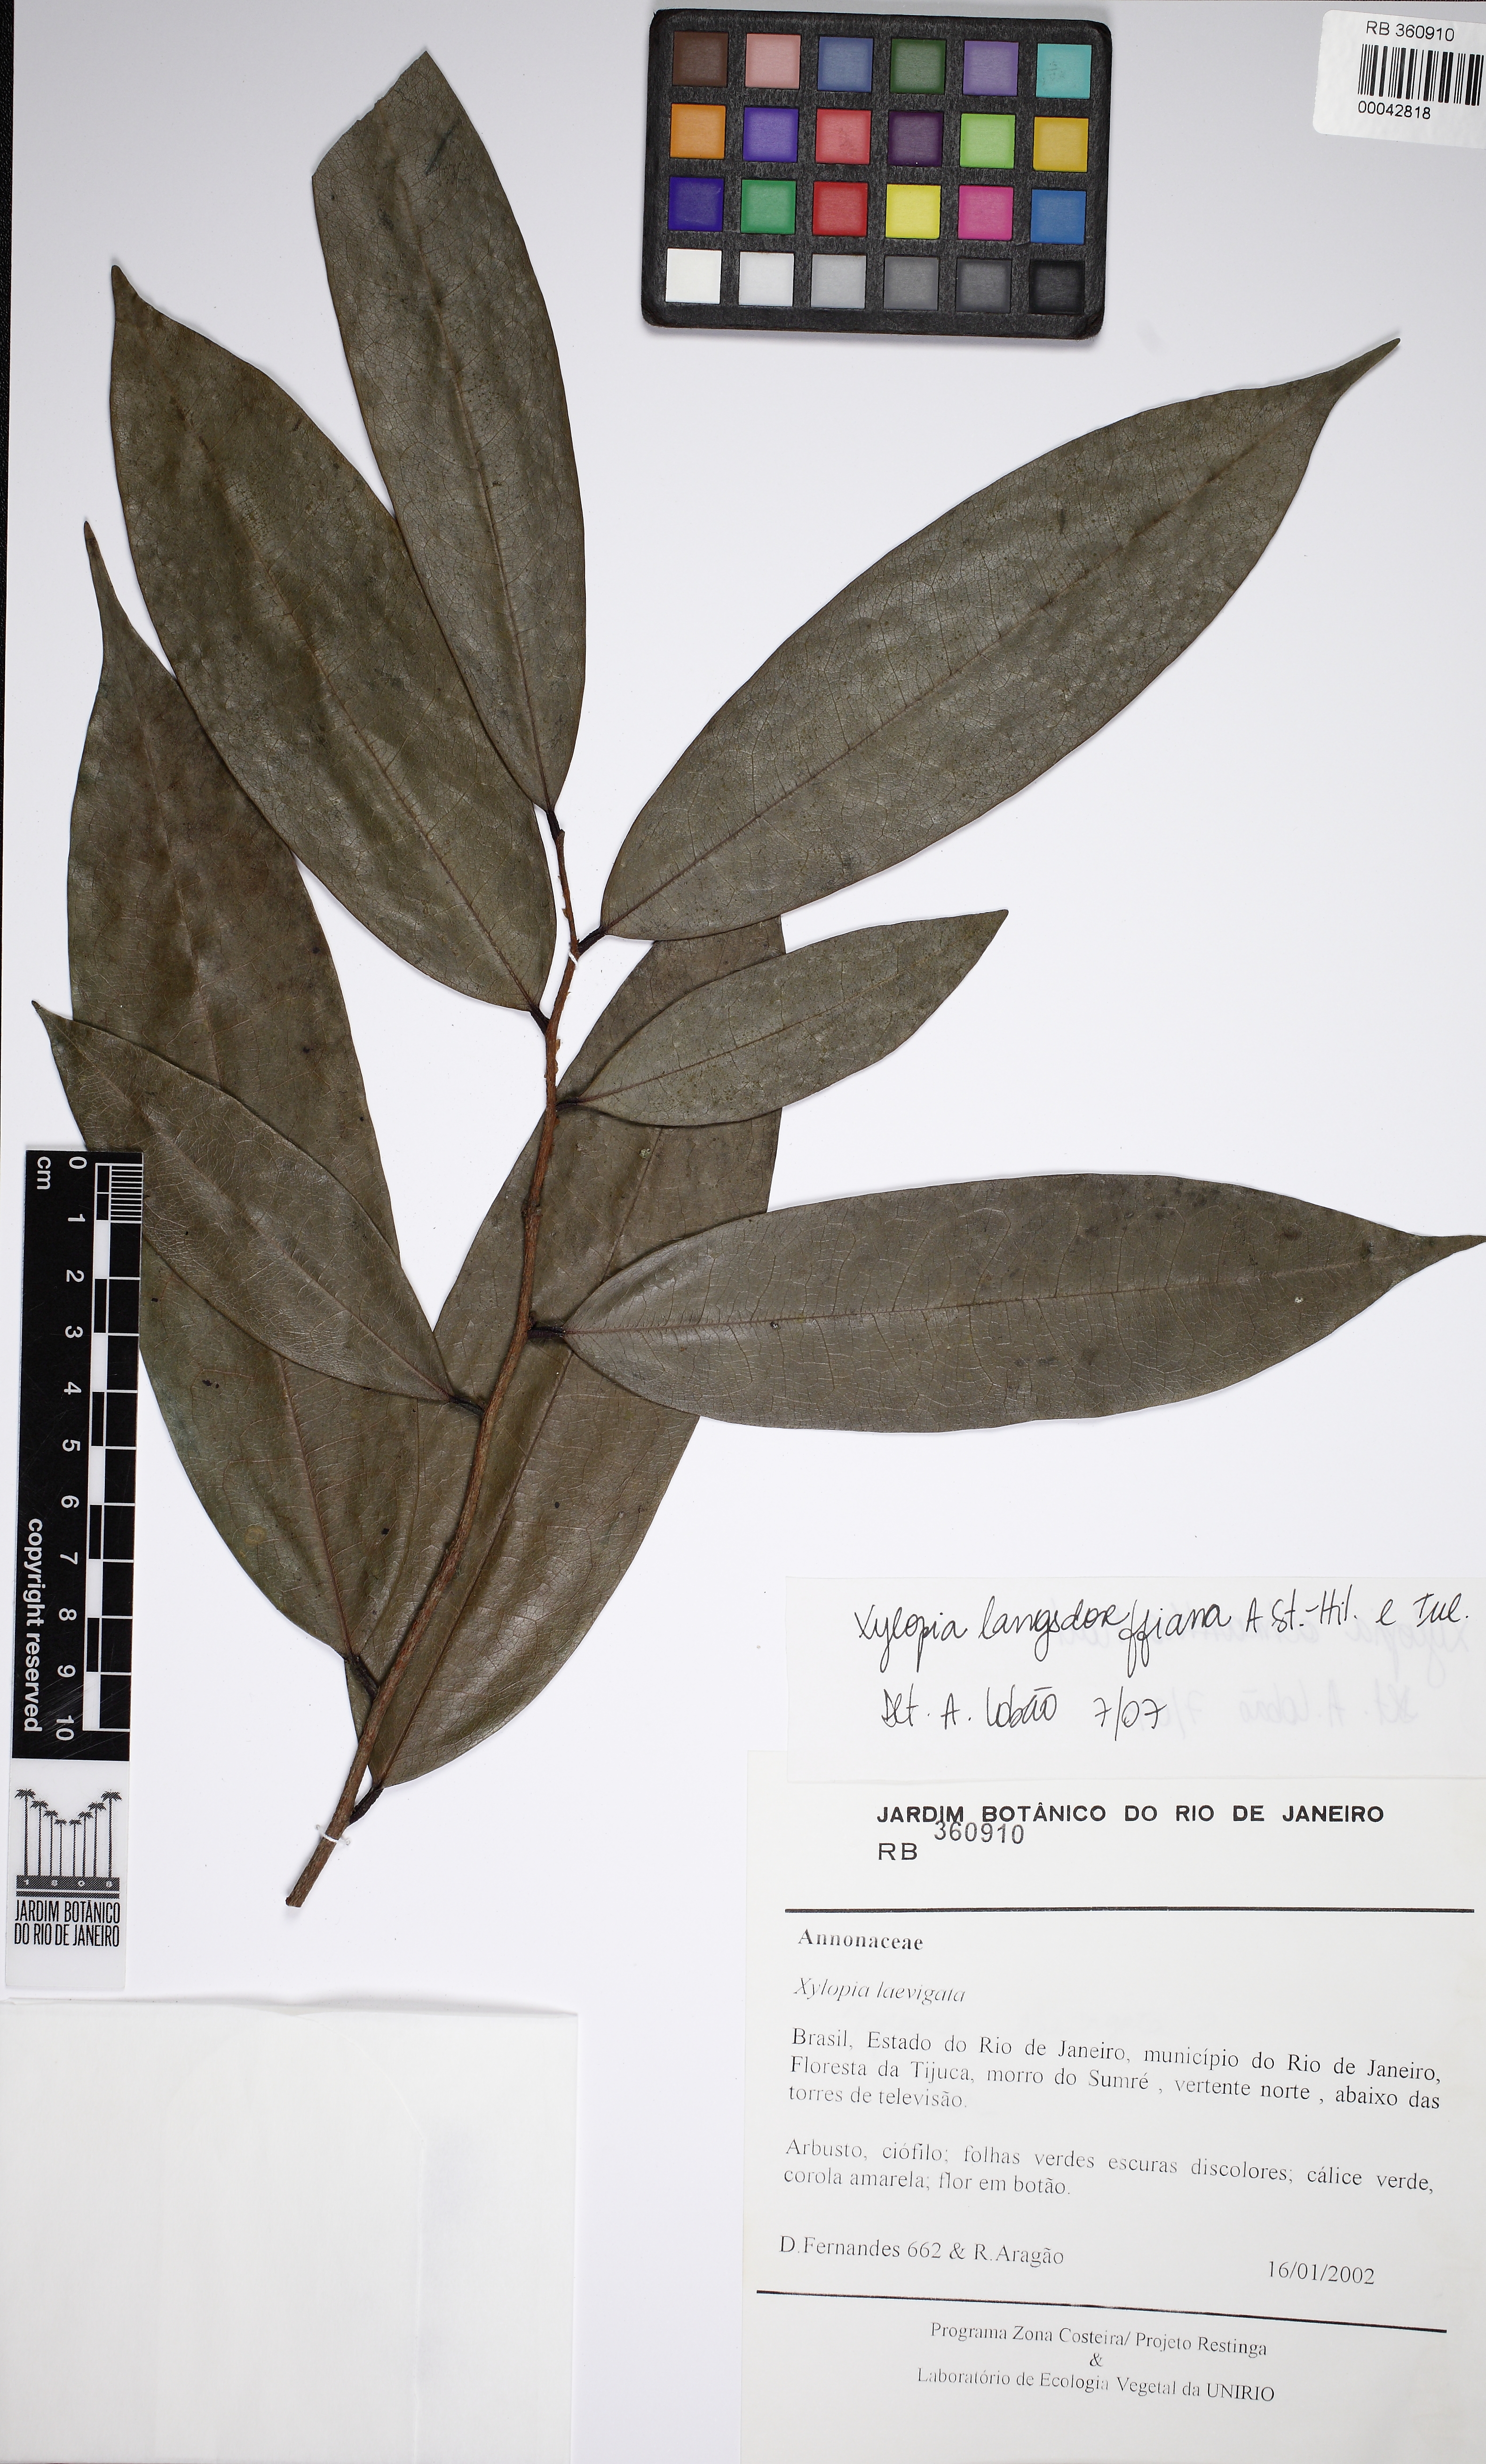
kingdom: Plantae
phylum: Tracheophyta
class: Magnoliopsida
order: Magnoliales
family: Annonaceae
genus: Xylopia
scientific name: Xylopia langsdorfiana
